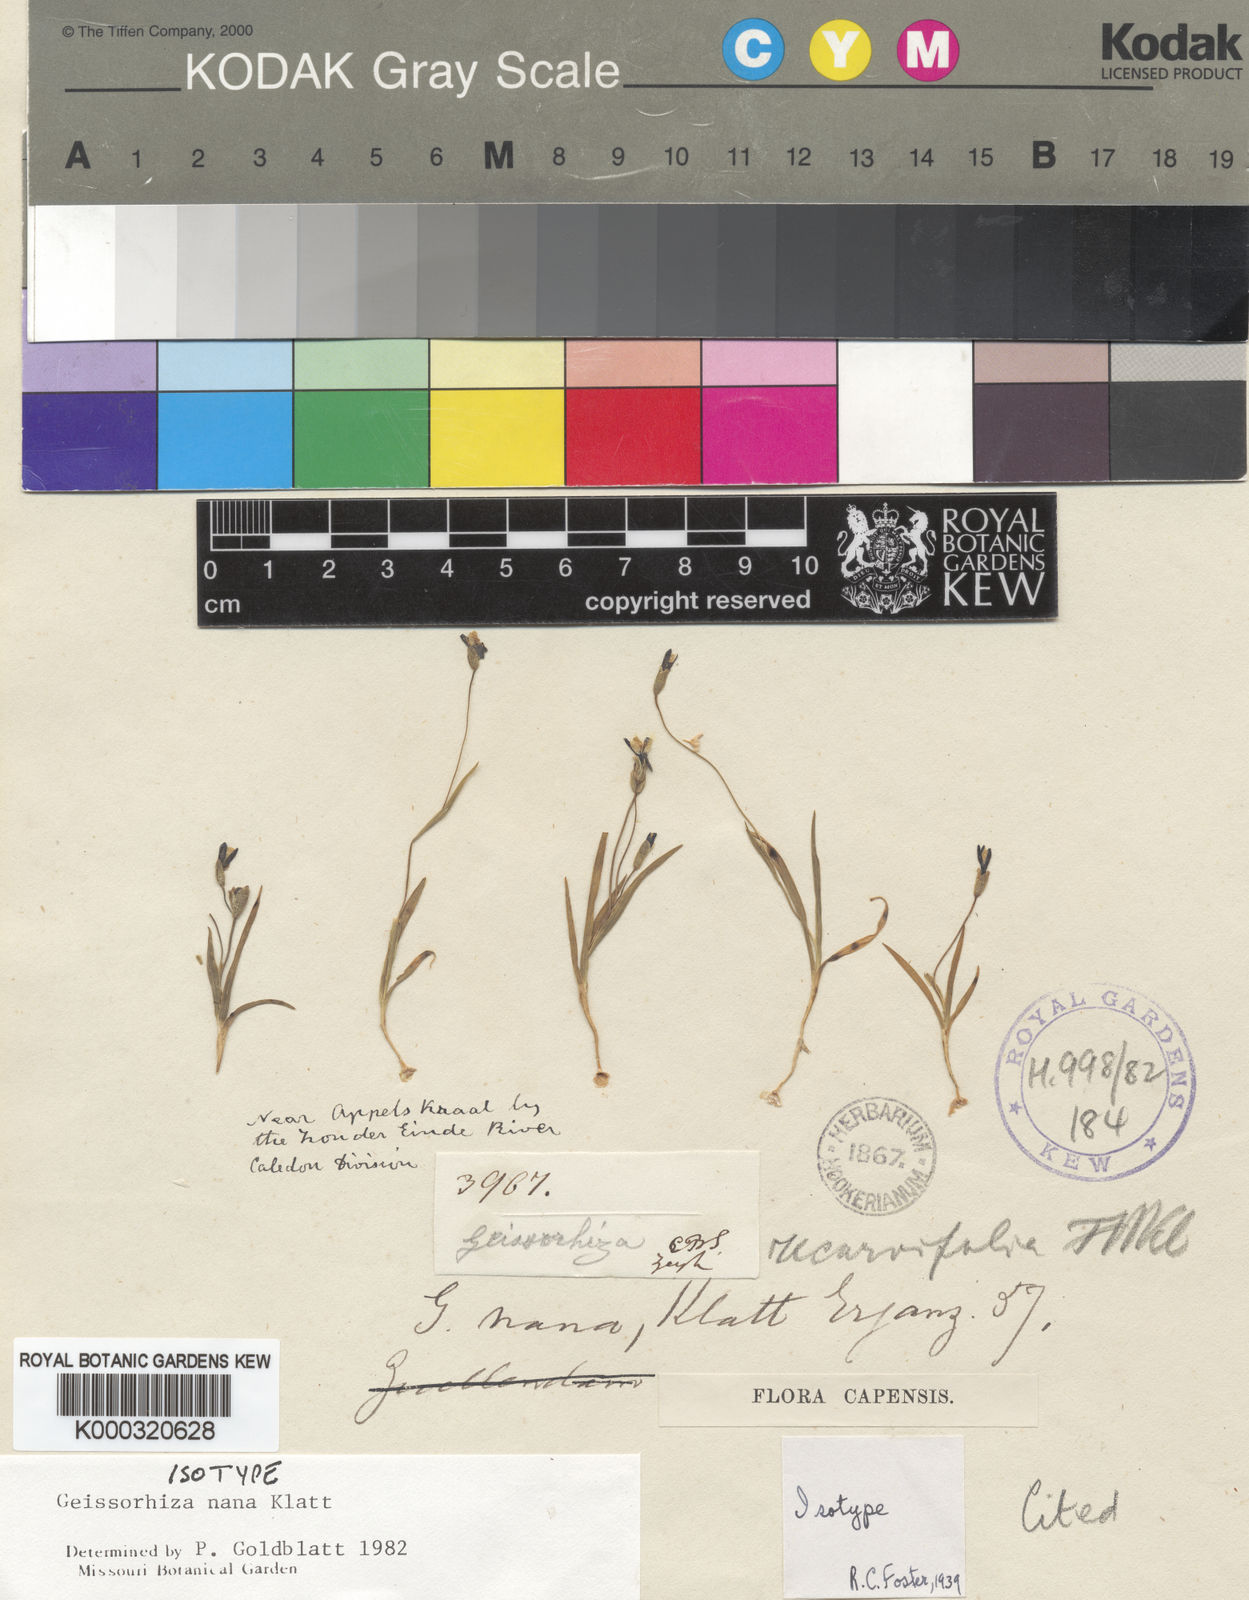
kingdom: Plantae
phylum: Tracheophyta
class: Liliopsida
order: Asparagales
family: Iridaceae
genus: Geissorhiza
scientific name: Geissorhiza nana
